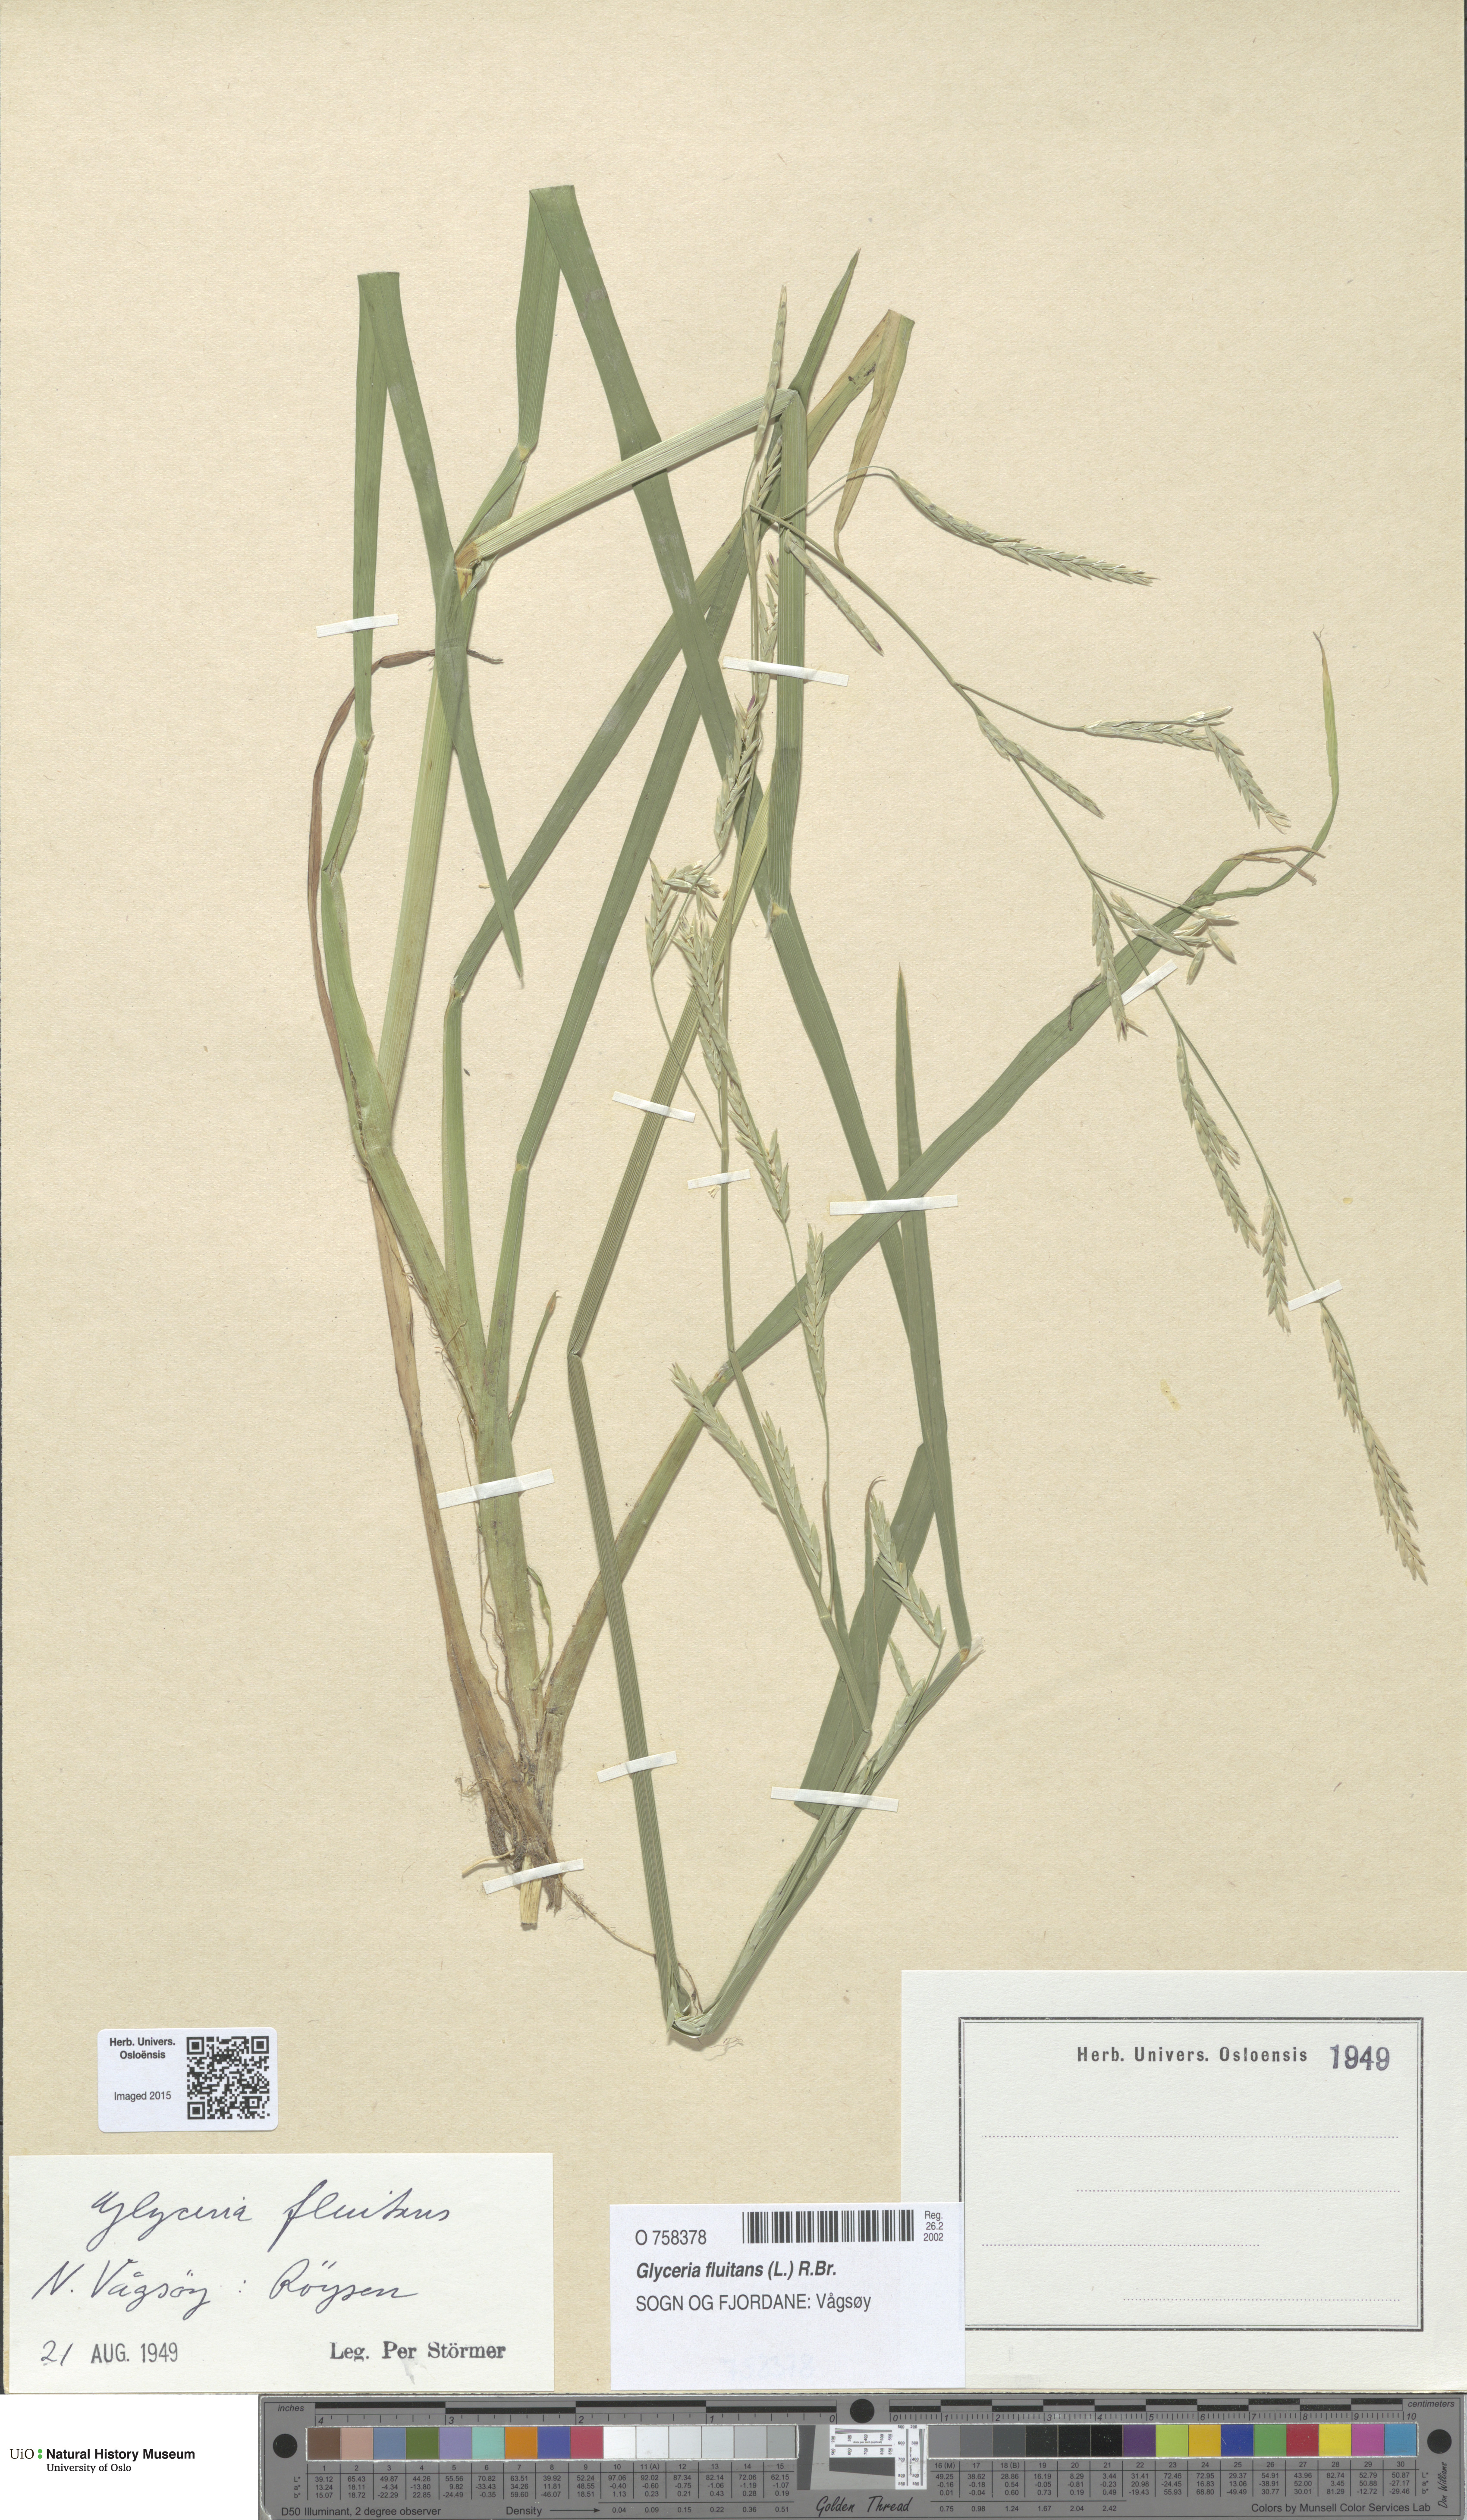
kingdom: Plantae
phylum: Tracheophyta
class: Liliopsida
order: Poales
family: Poaceae
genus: Glyceria
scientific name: Glyceria fluitans
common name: Floating sweet-grass
